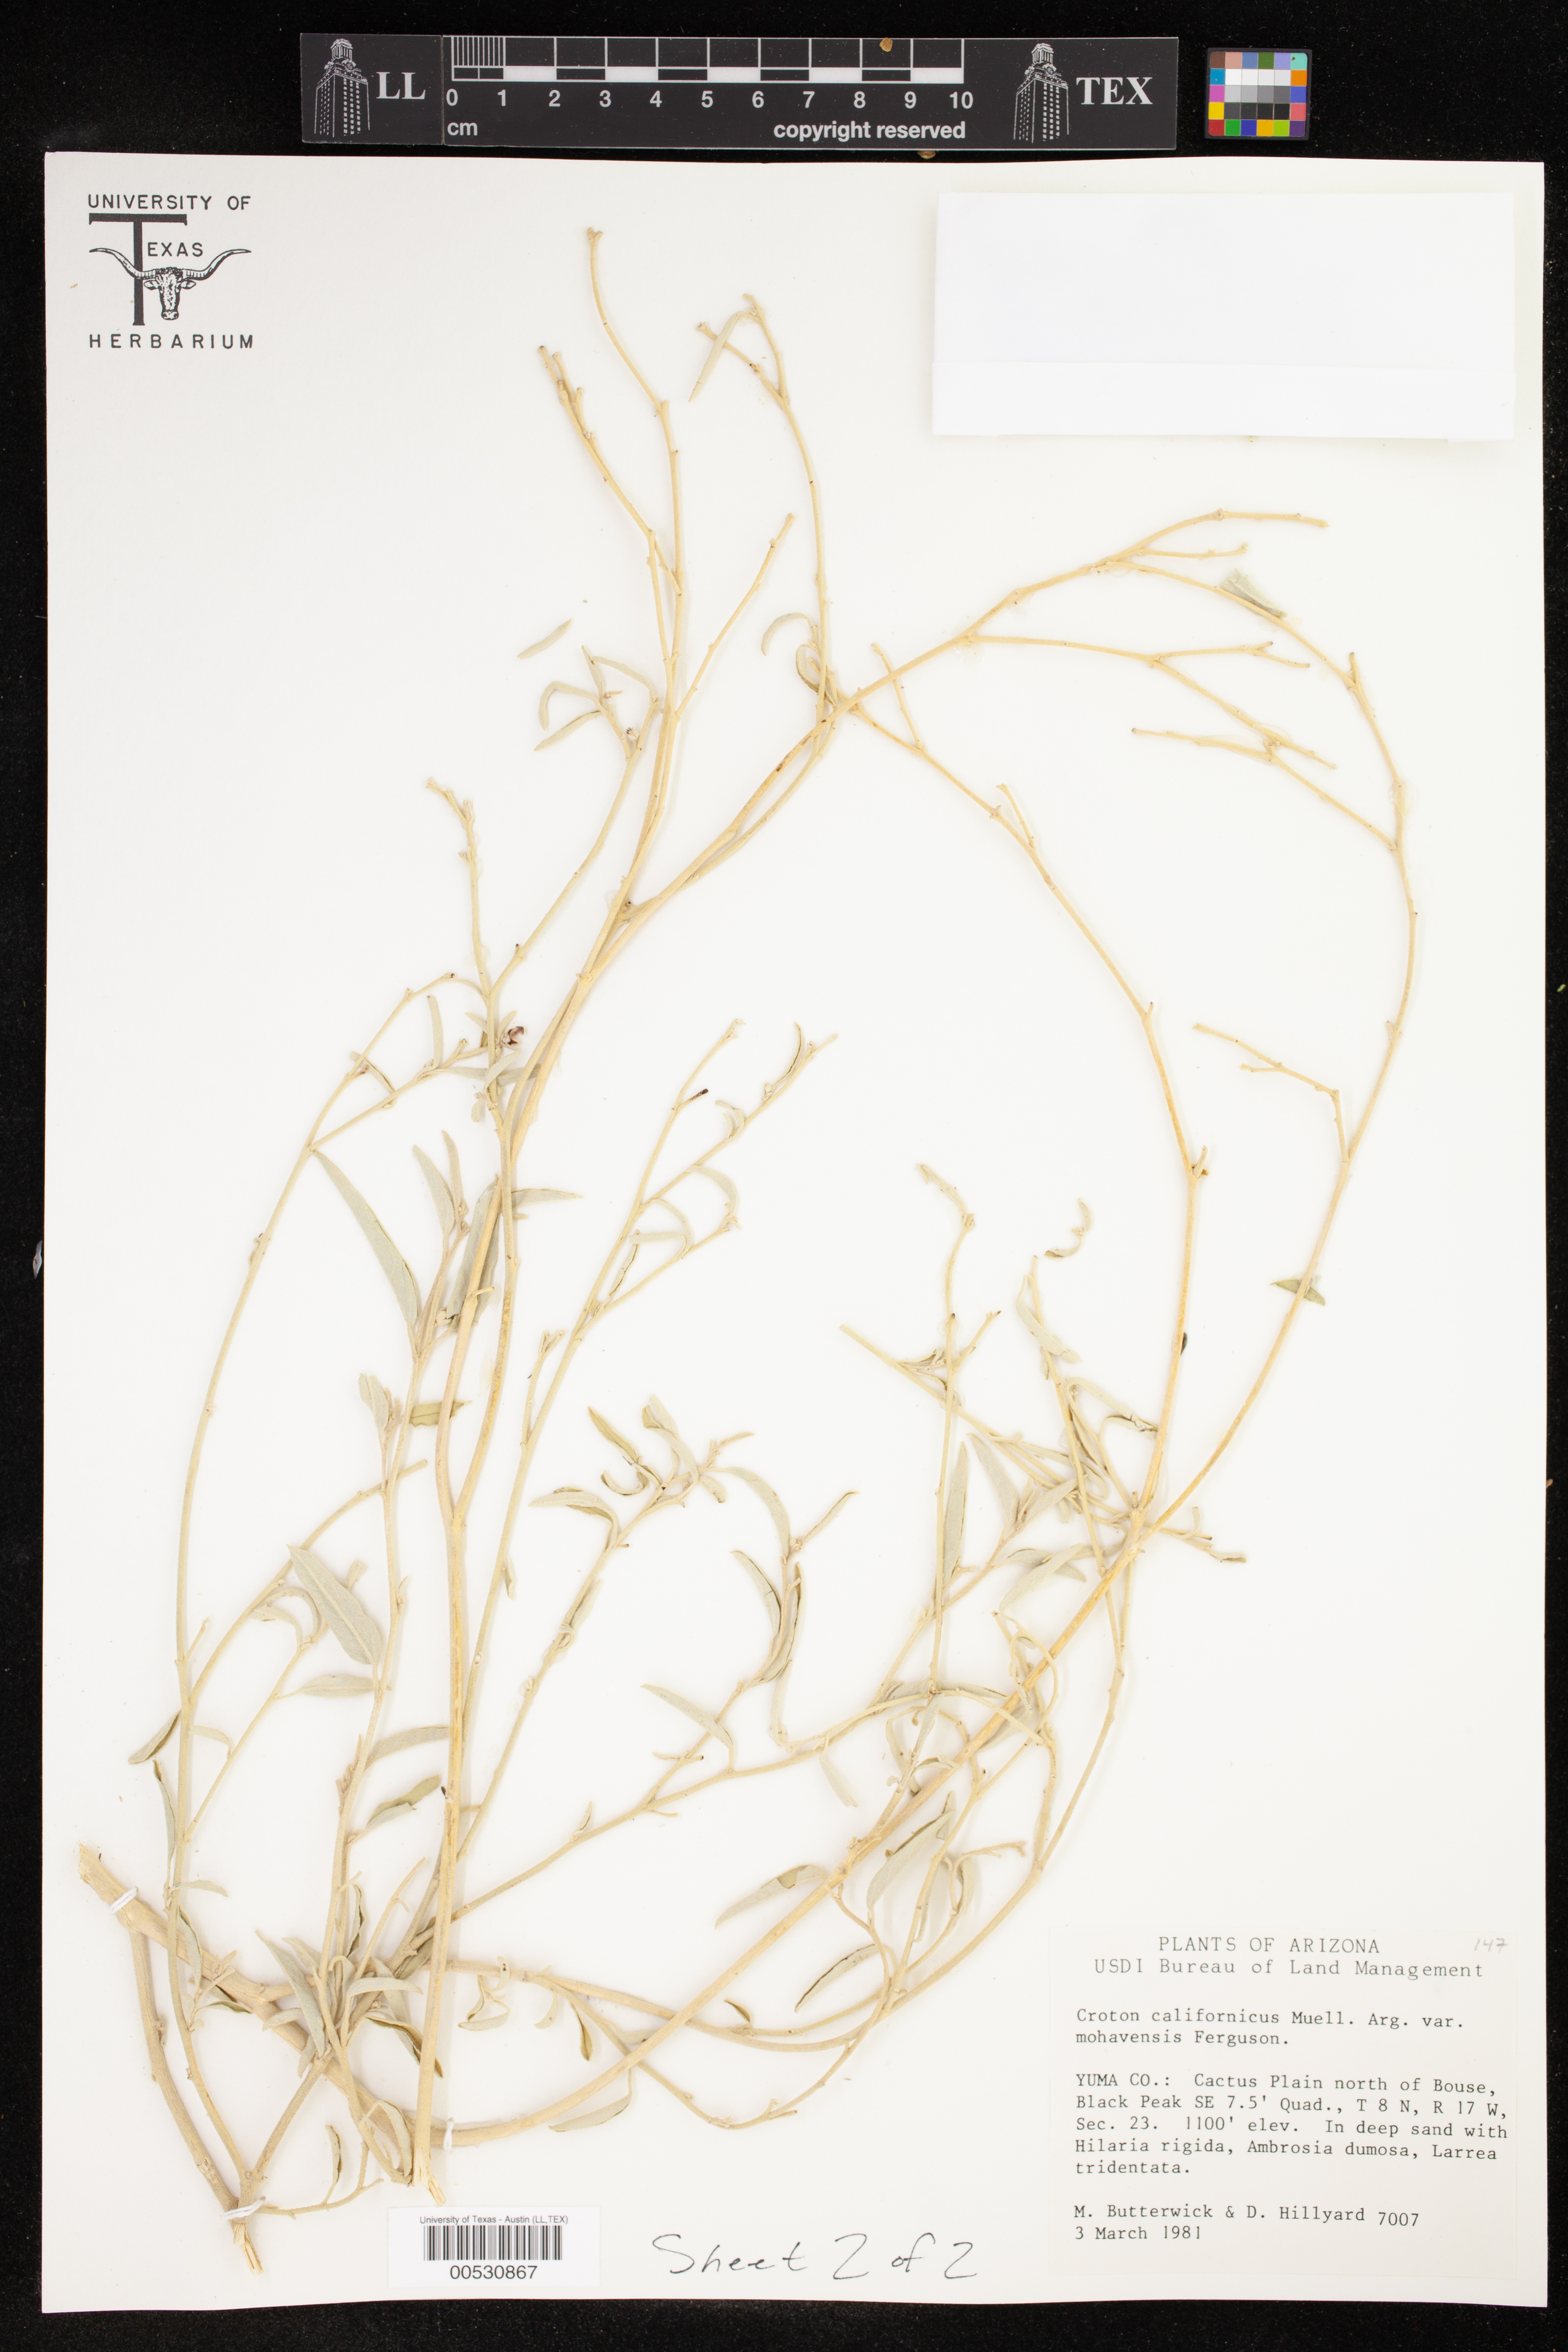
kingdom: Plantae
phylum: Tracheophyta
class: Magnoliopsida
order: Malpighiales
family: Euphorbiaceae
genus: Croton
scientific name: Croton californicus
